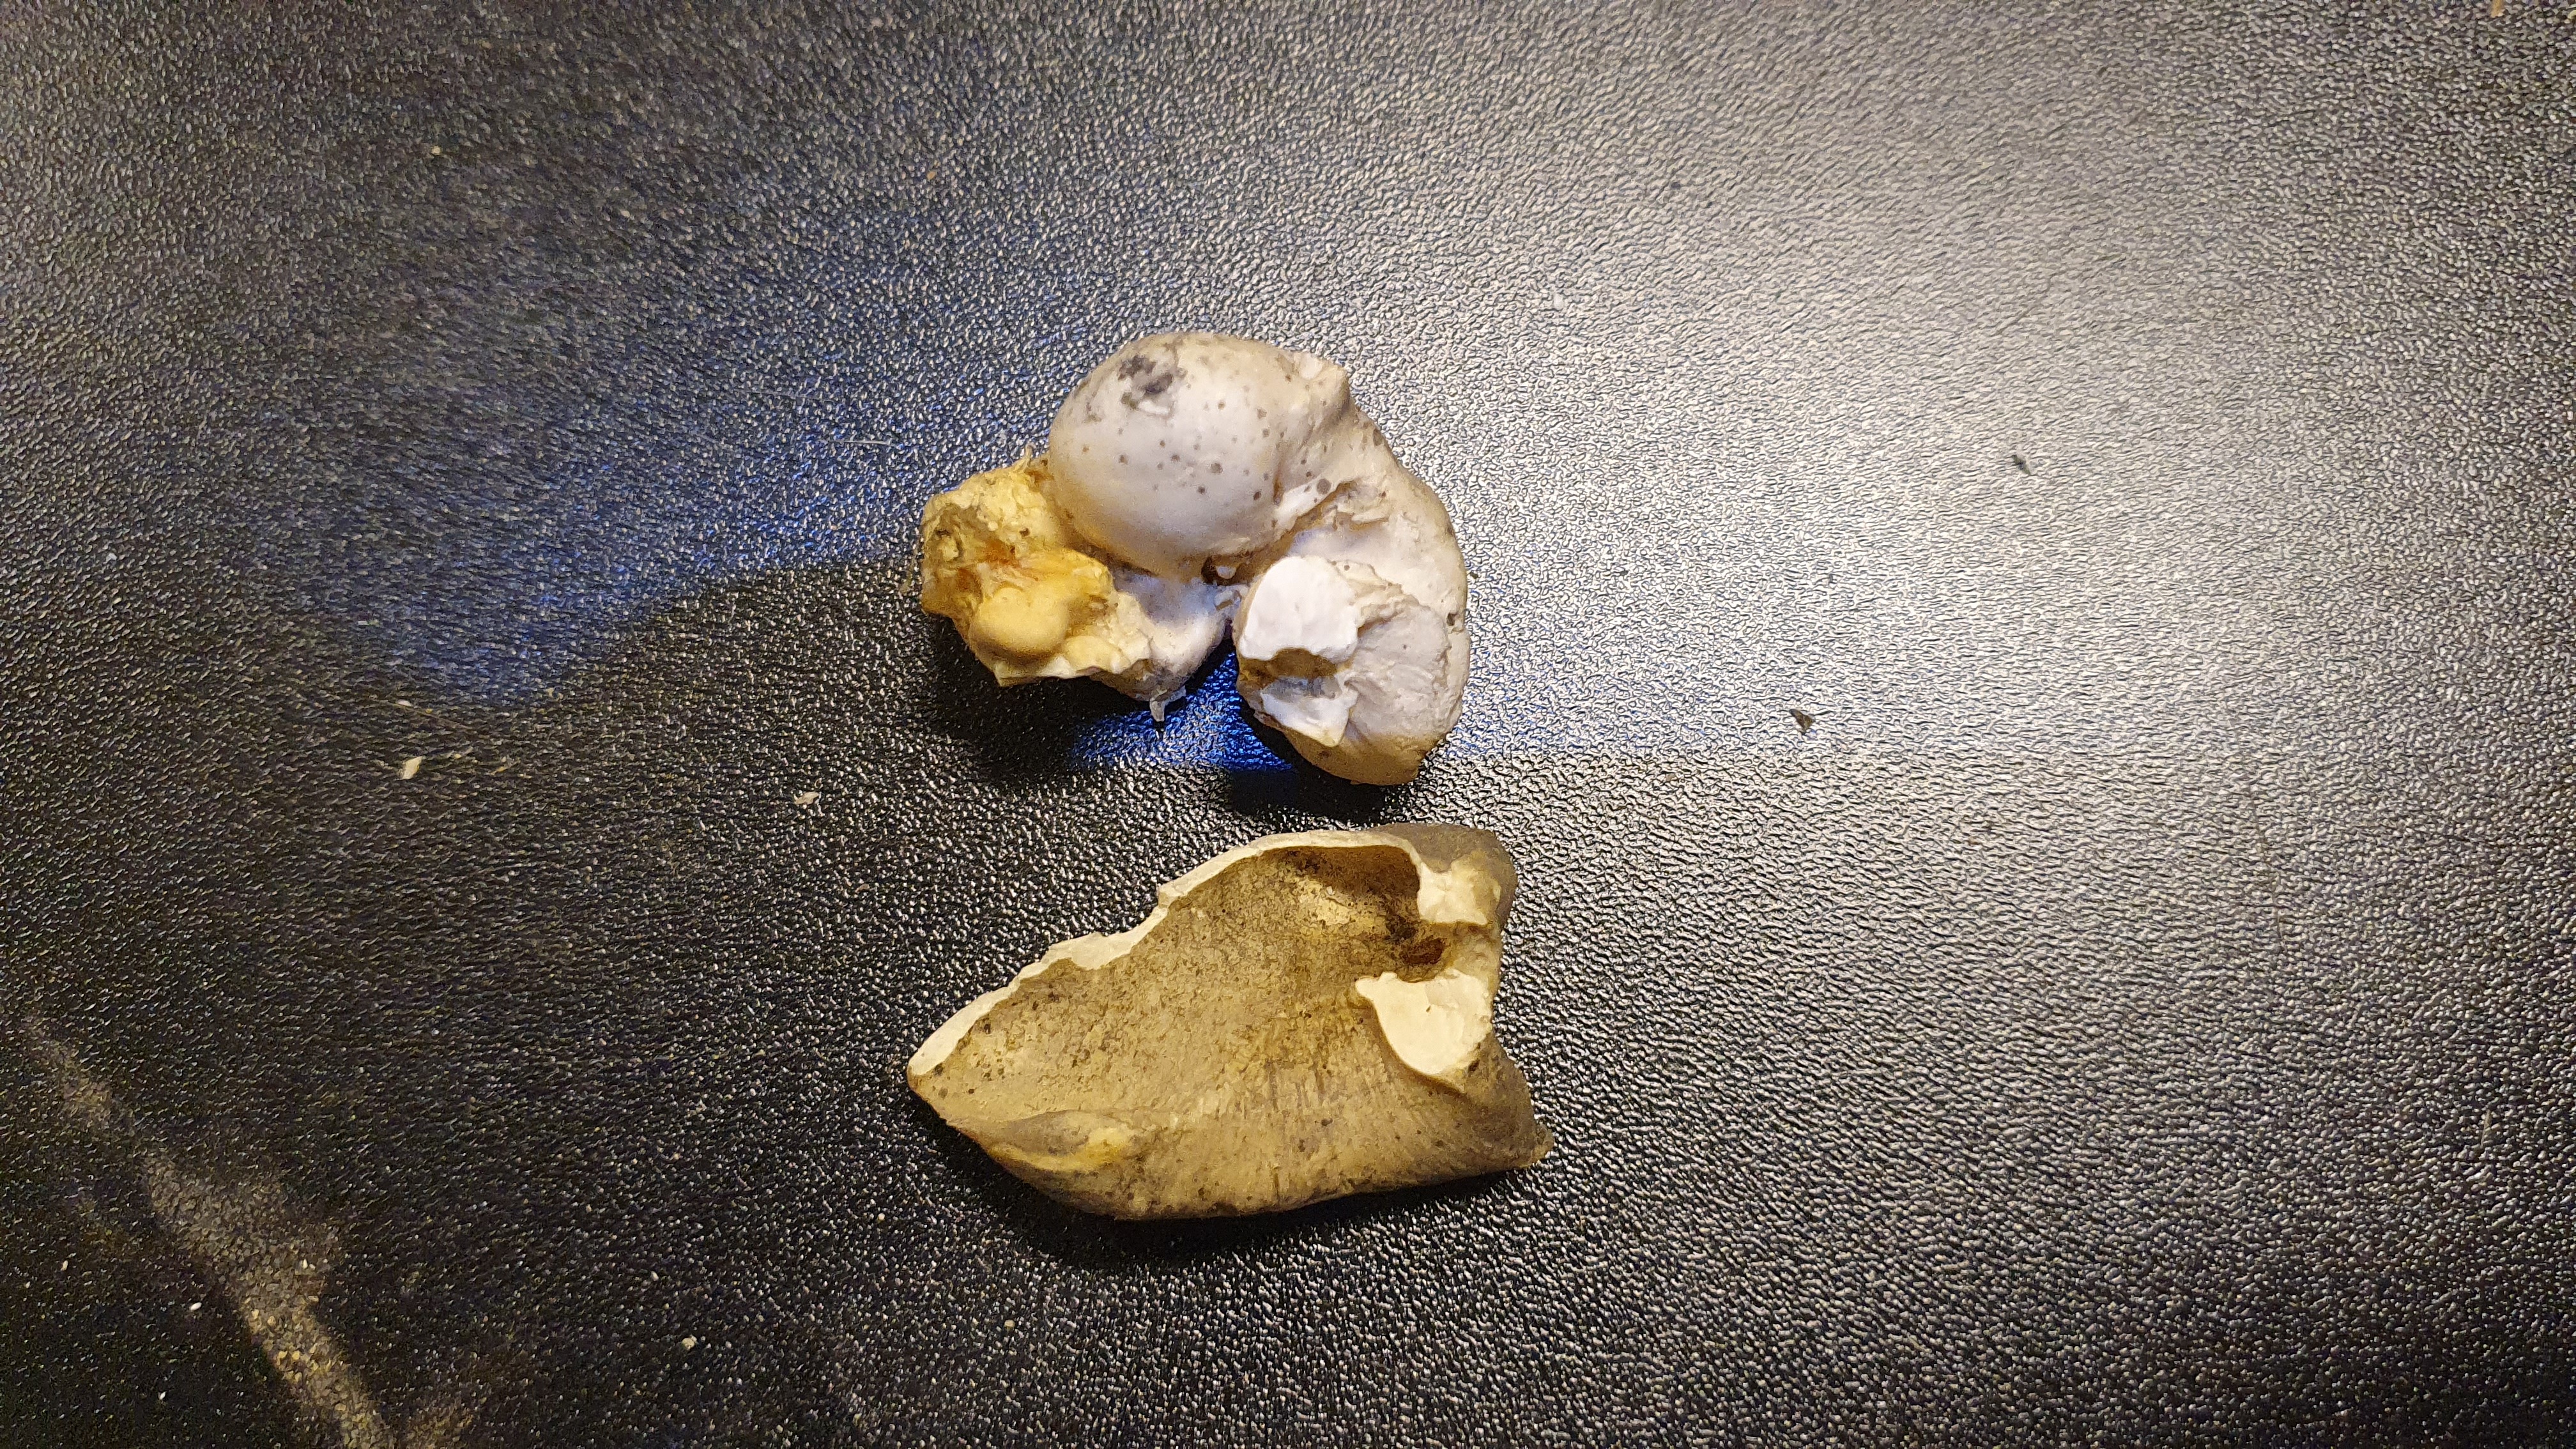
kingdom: Animalia
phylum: Chordata
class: Mammalia
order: Cetacea
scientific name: Cetacea
